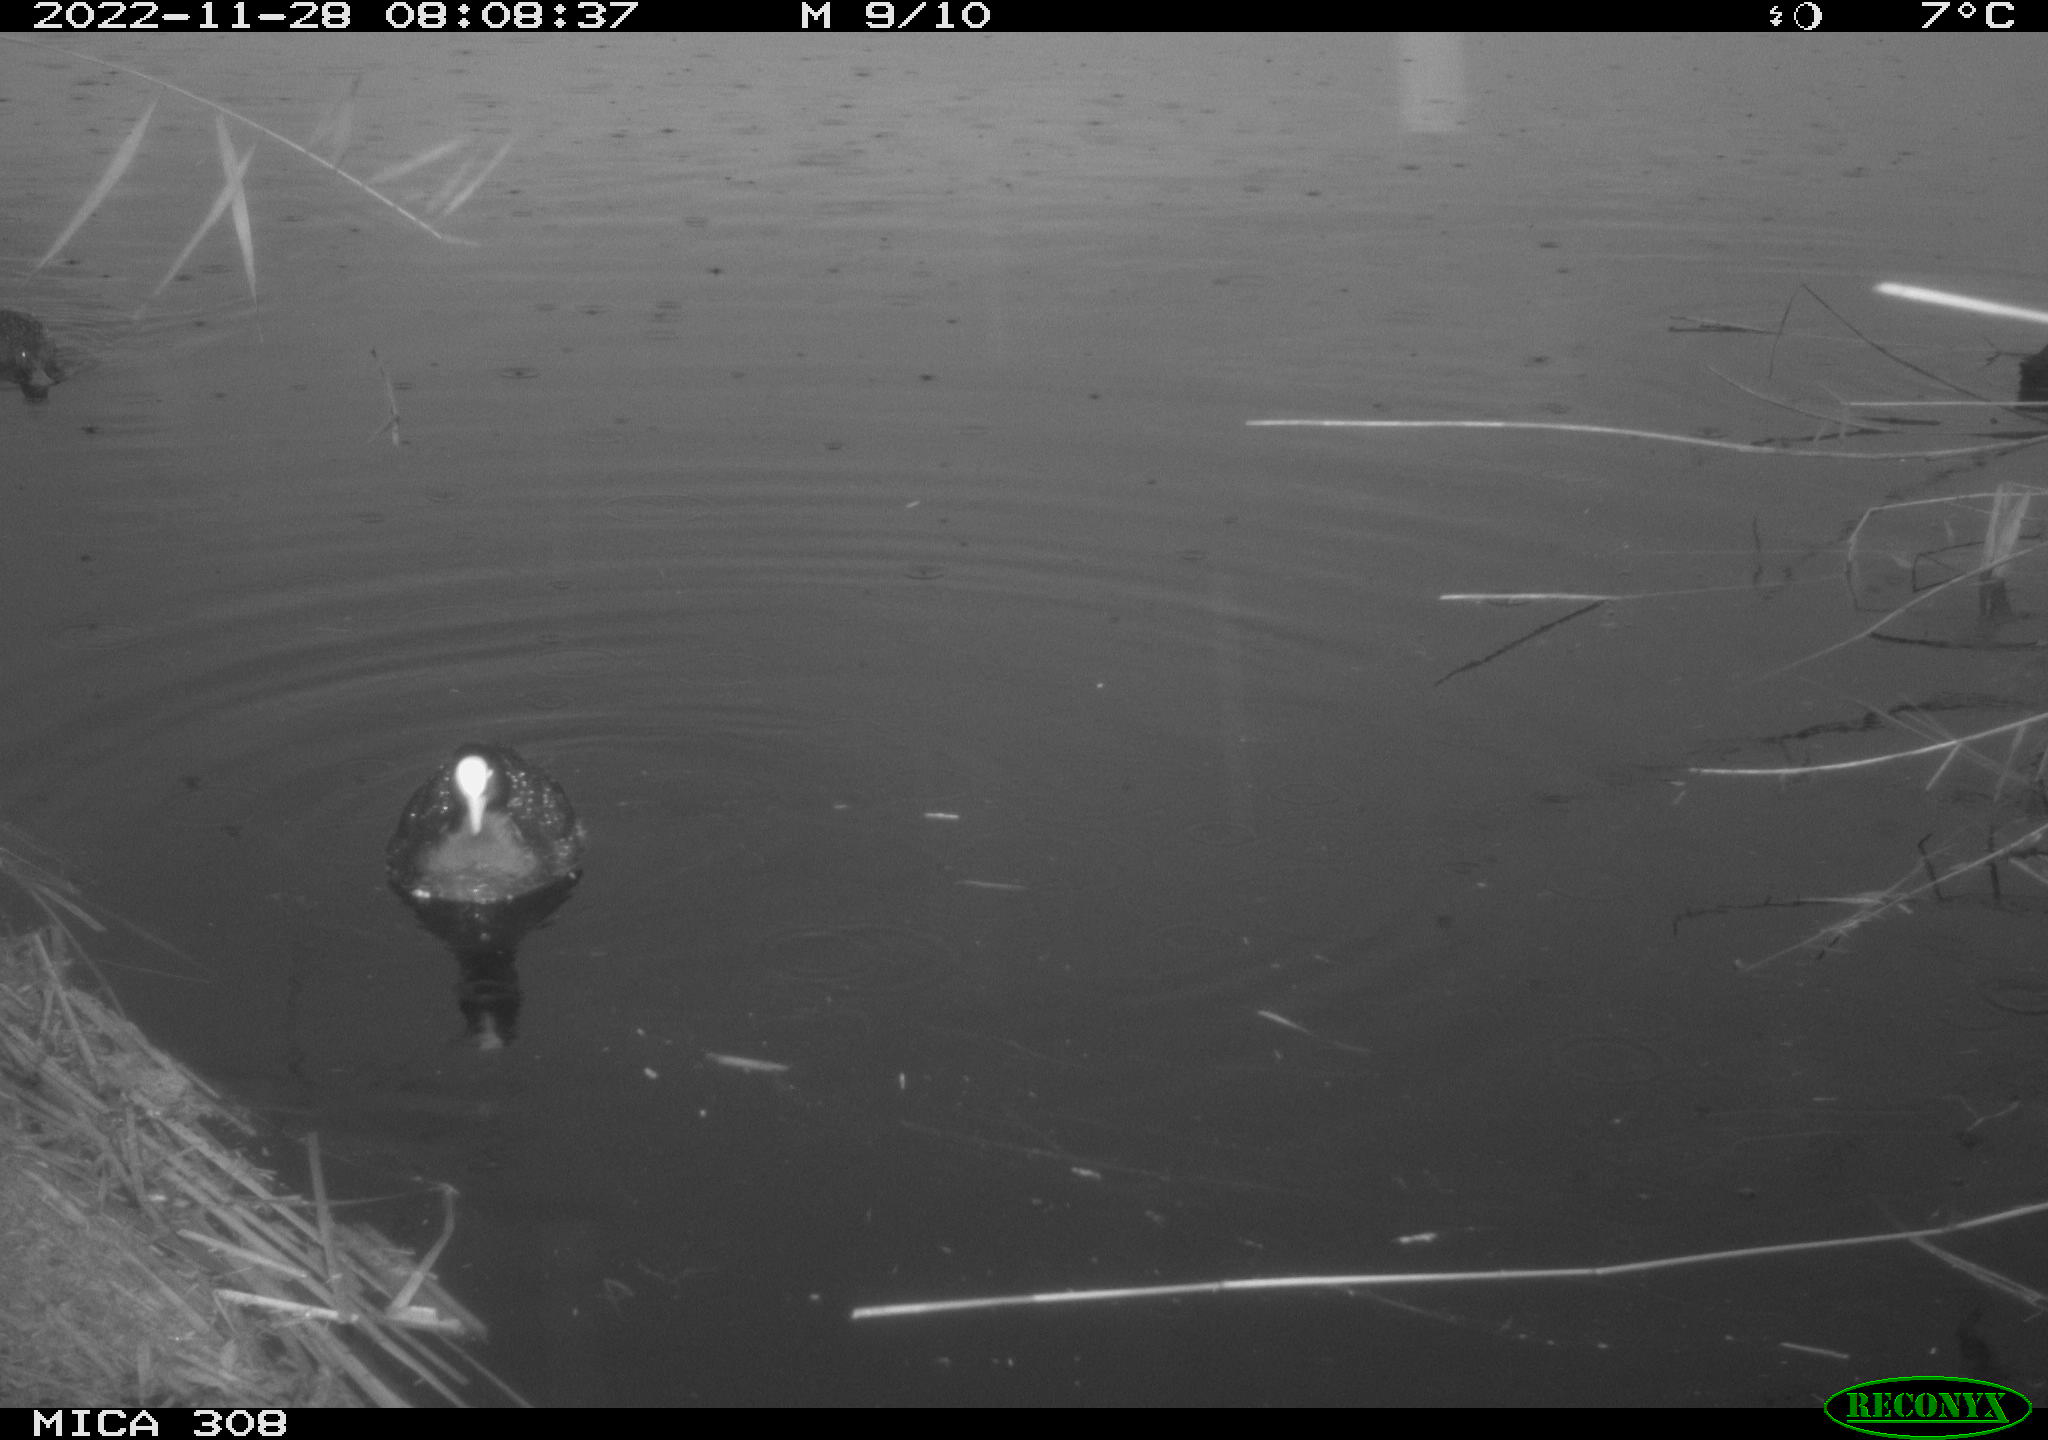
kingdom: Animalia
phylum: Chordata
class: Aves
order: Anseriformes
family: Anatidae
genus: Anas
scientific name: Anas
